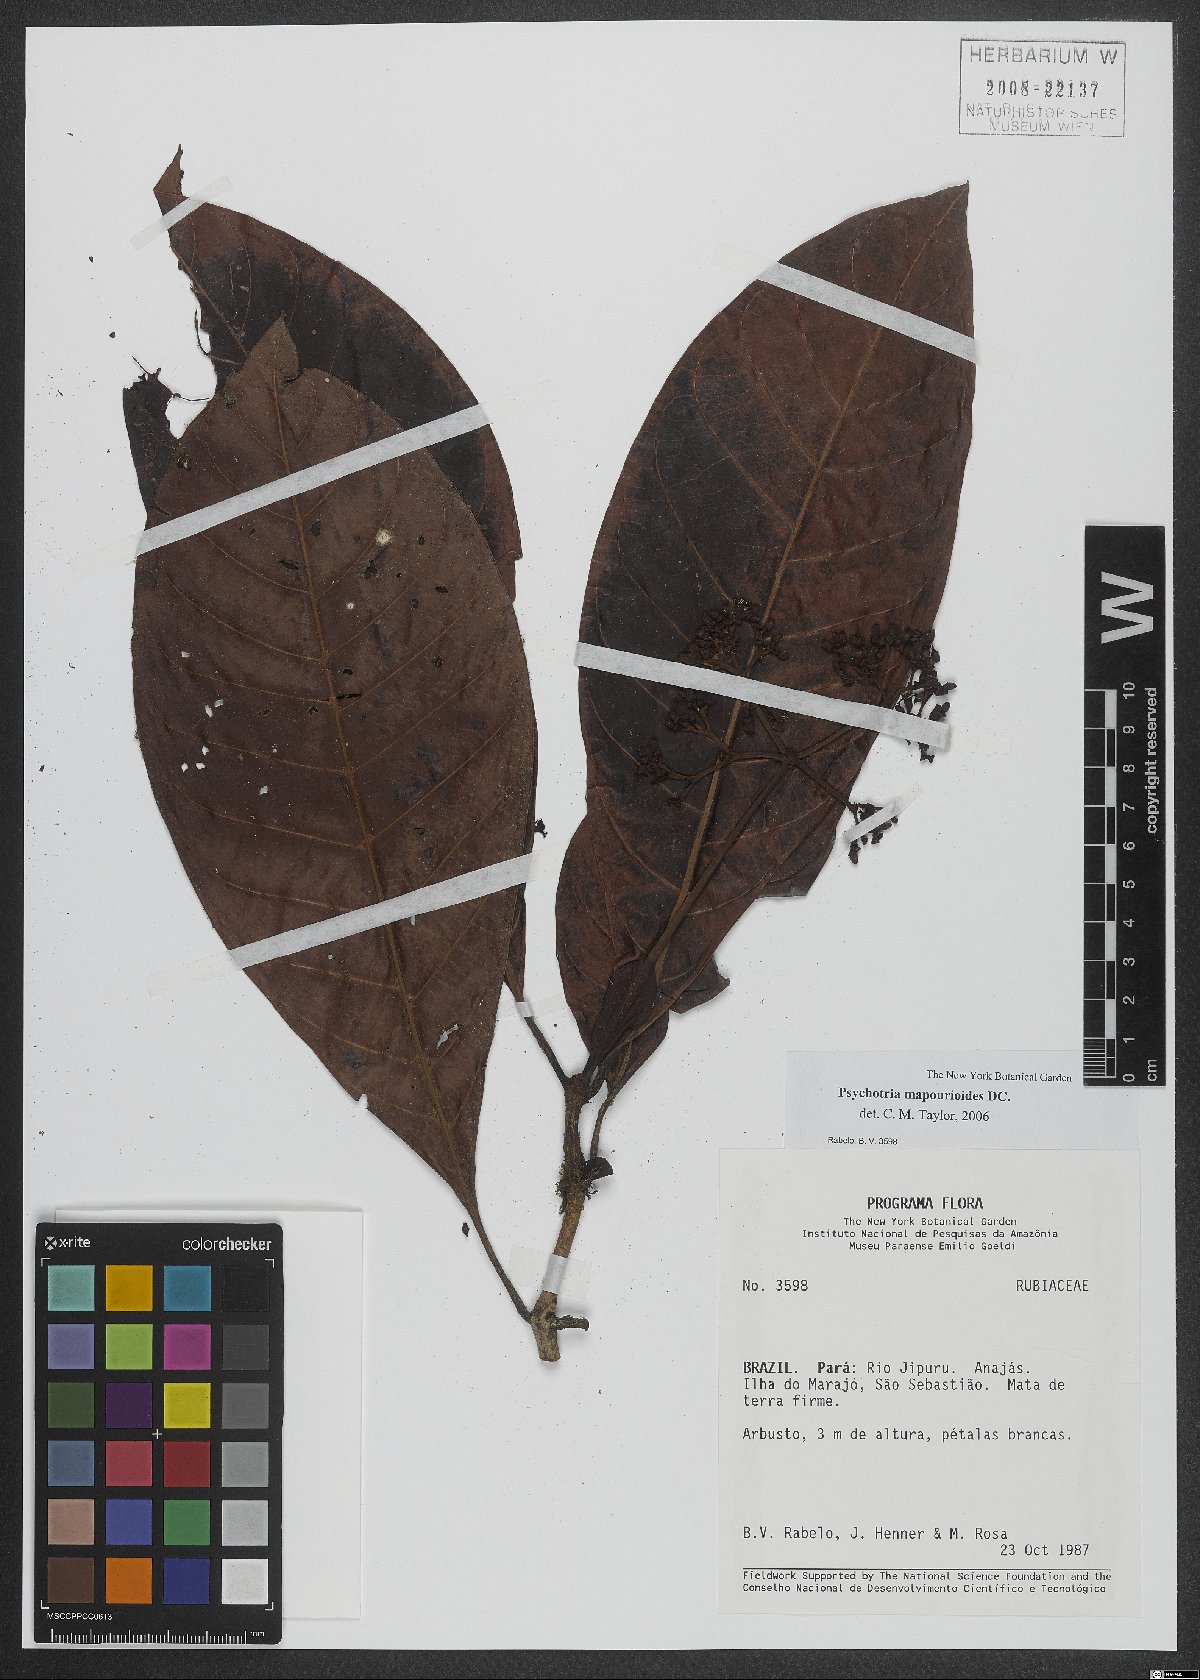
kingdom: Plantae
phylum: Tracheophyta
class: Magnoliopsida
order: Gentianales
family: Rubiaceae
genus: Psychotria
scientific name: Psychotria pedunculosa
